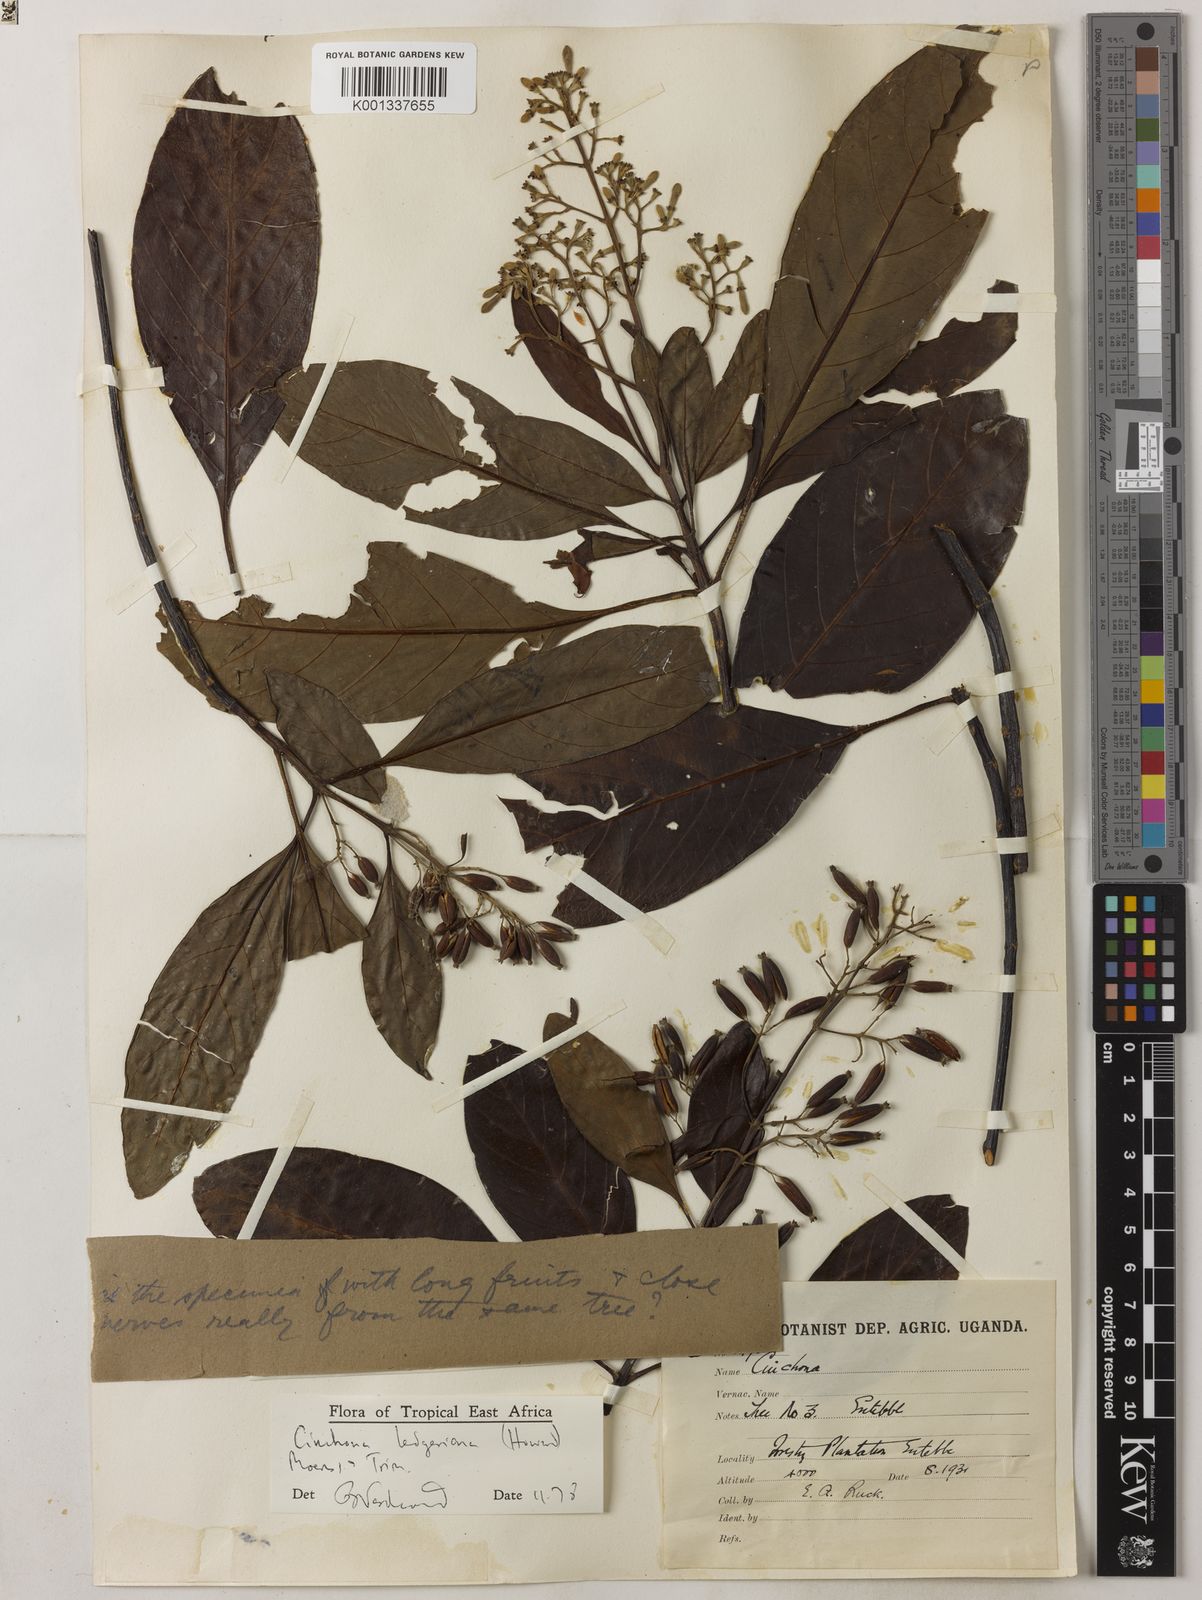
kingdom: Plantae
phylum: Tracheophyta
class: Magnoliopsida
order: Gentianales
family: Rubiaceae
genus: Cinchona
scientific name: Cinchona calisaya
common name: Ledgerbark
